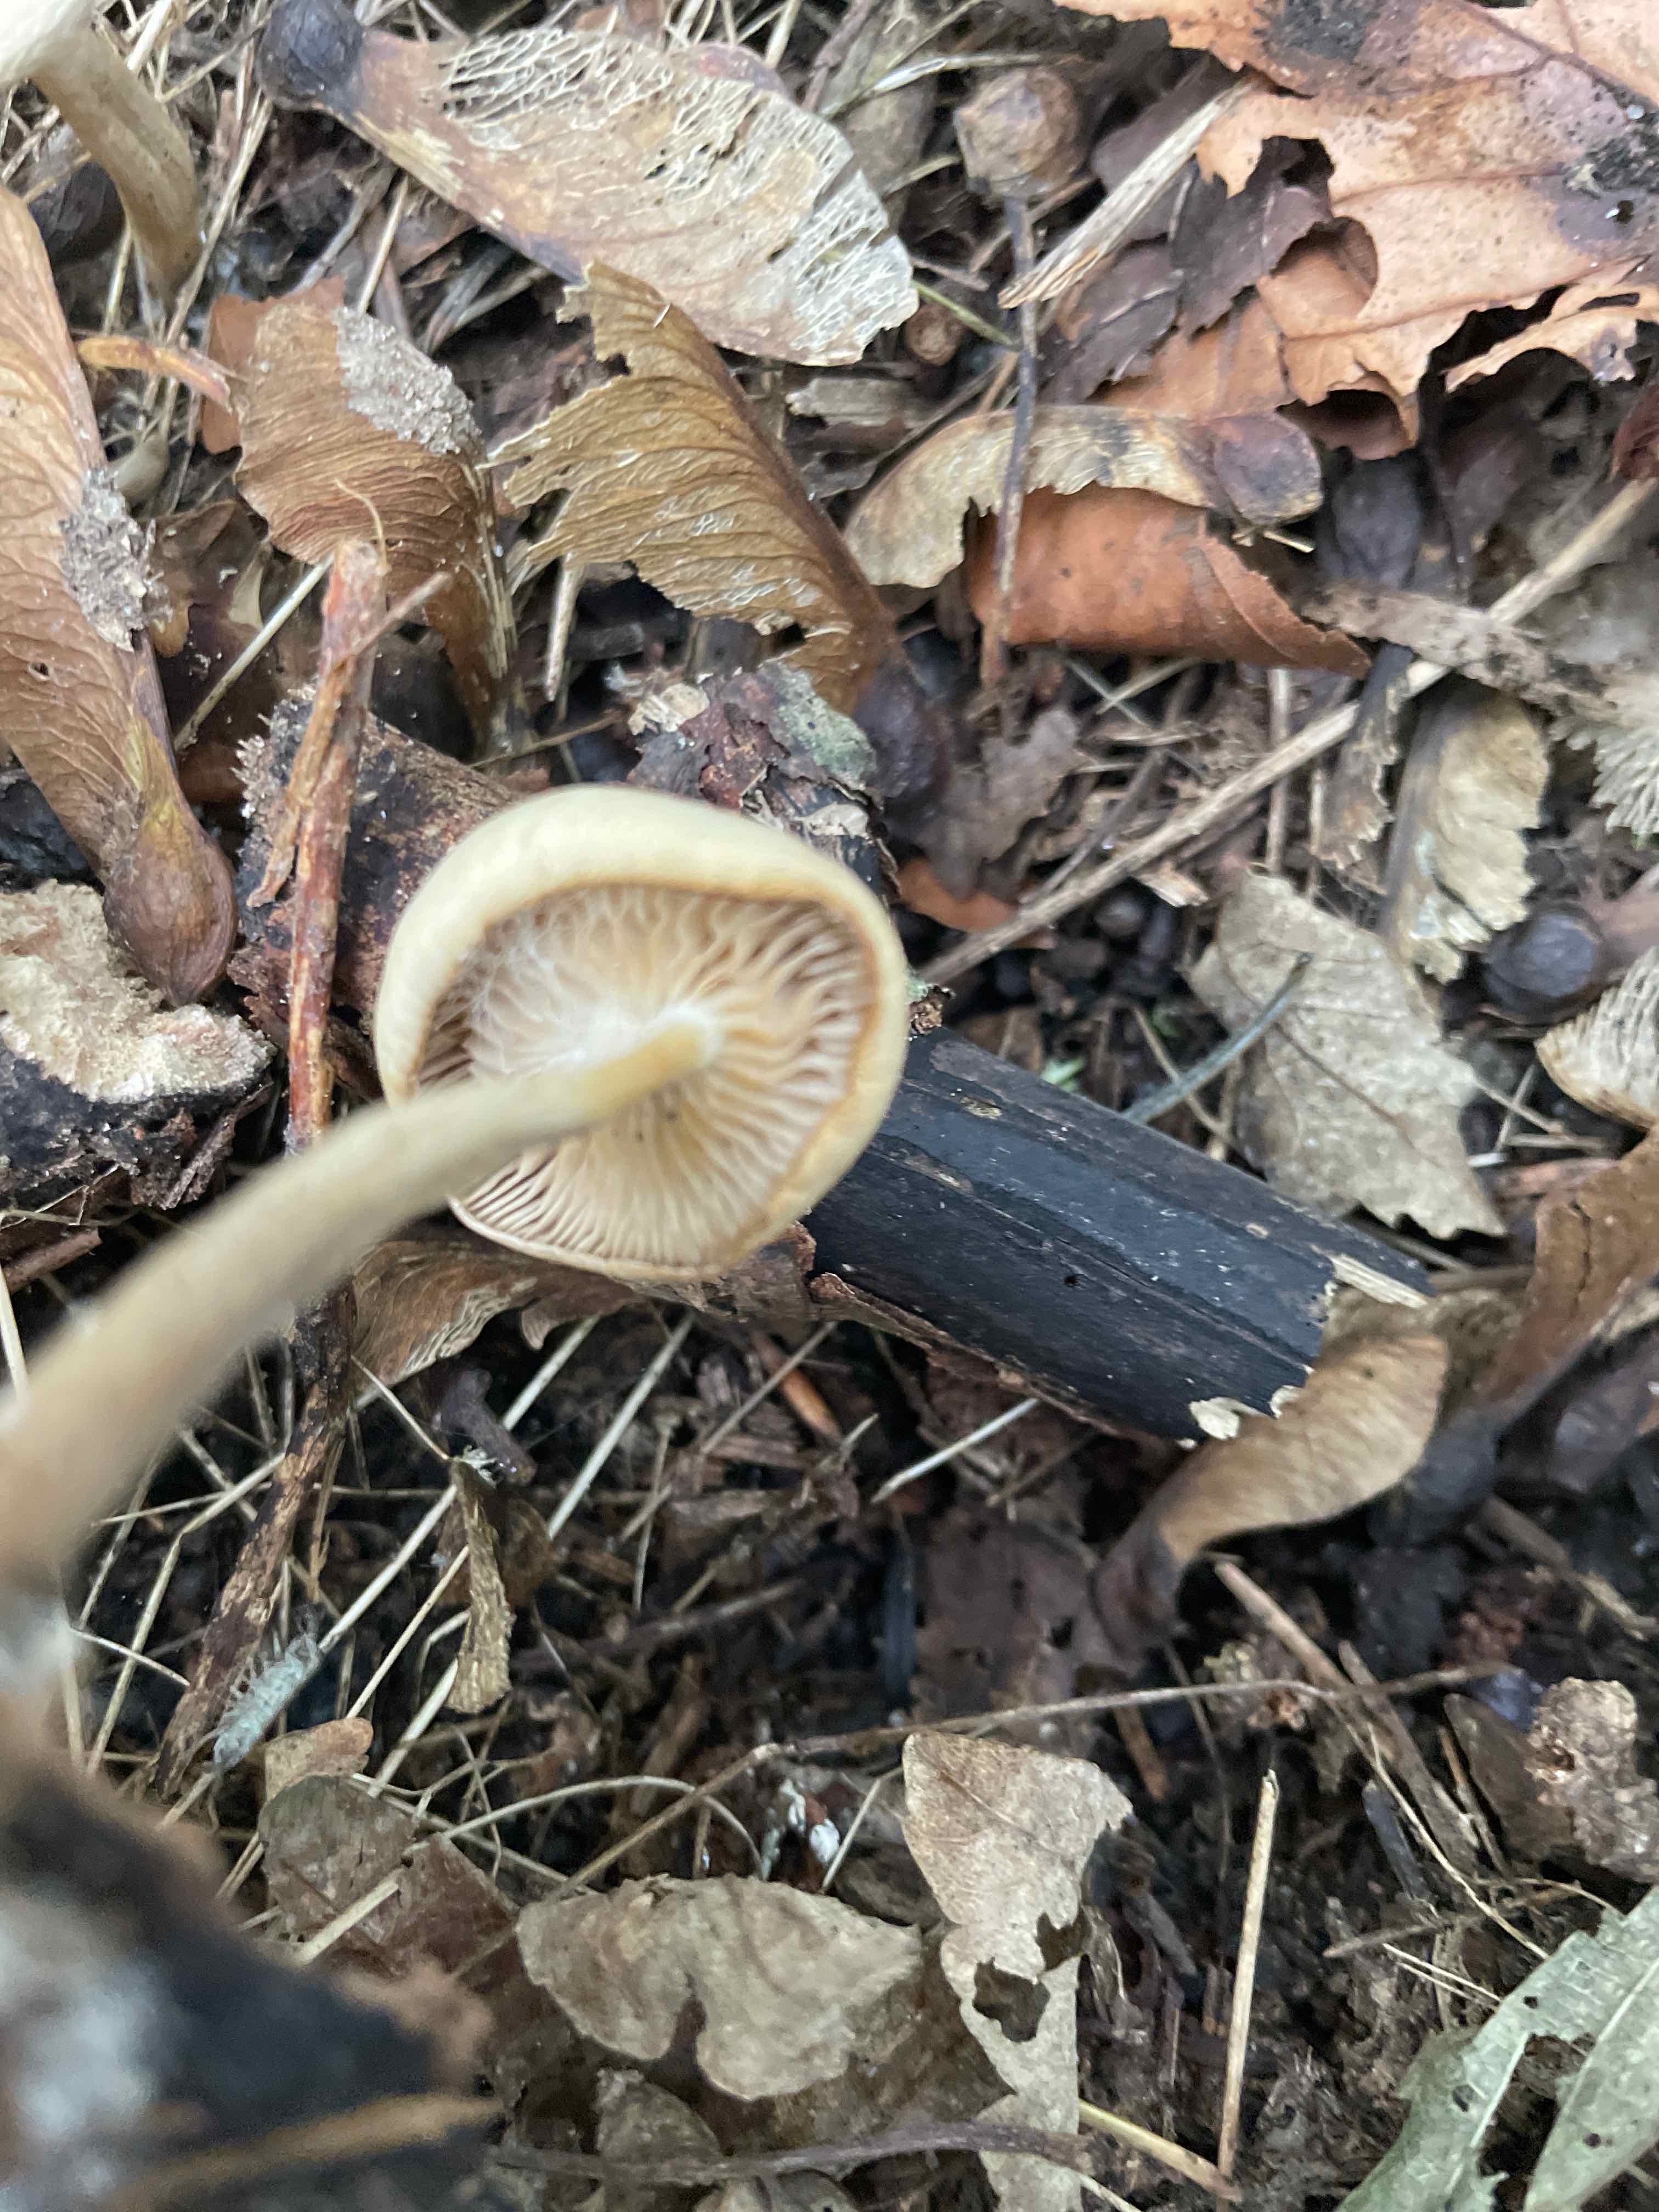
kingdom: Fungi
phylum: Basidiomycota
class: Agaricomycetes
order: Agaricales
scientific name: Agaricales
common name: champignonordenen
